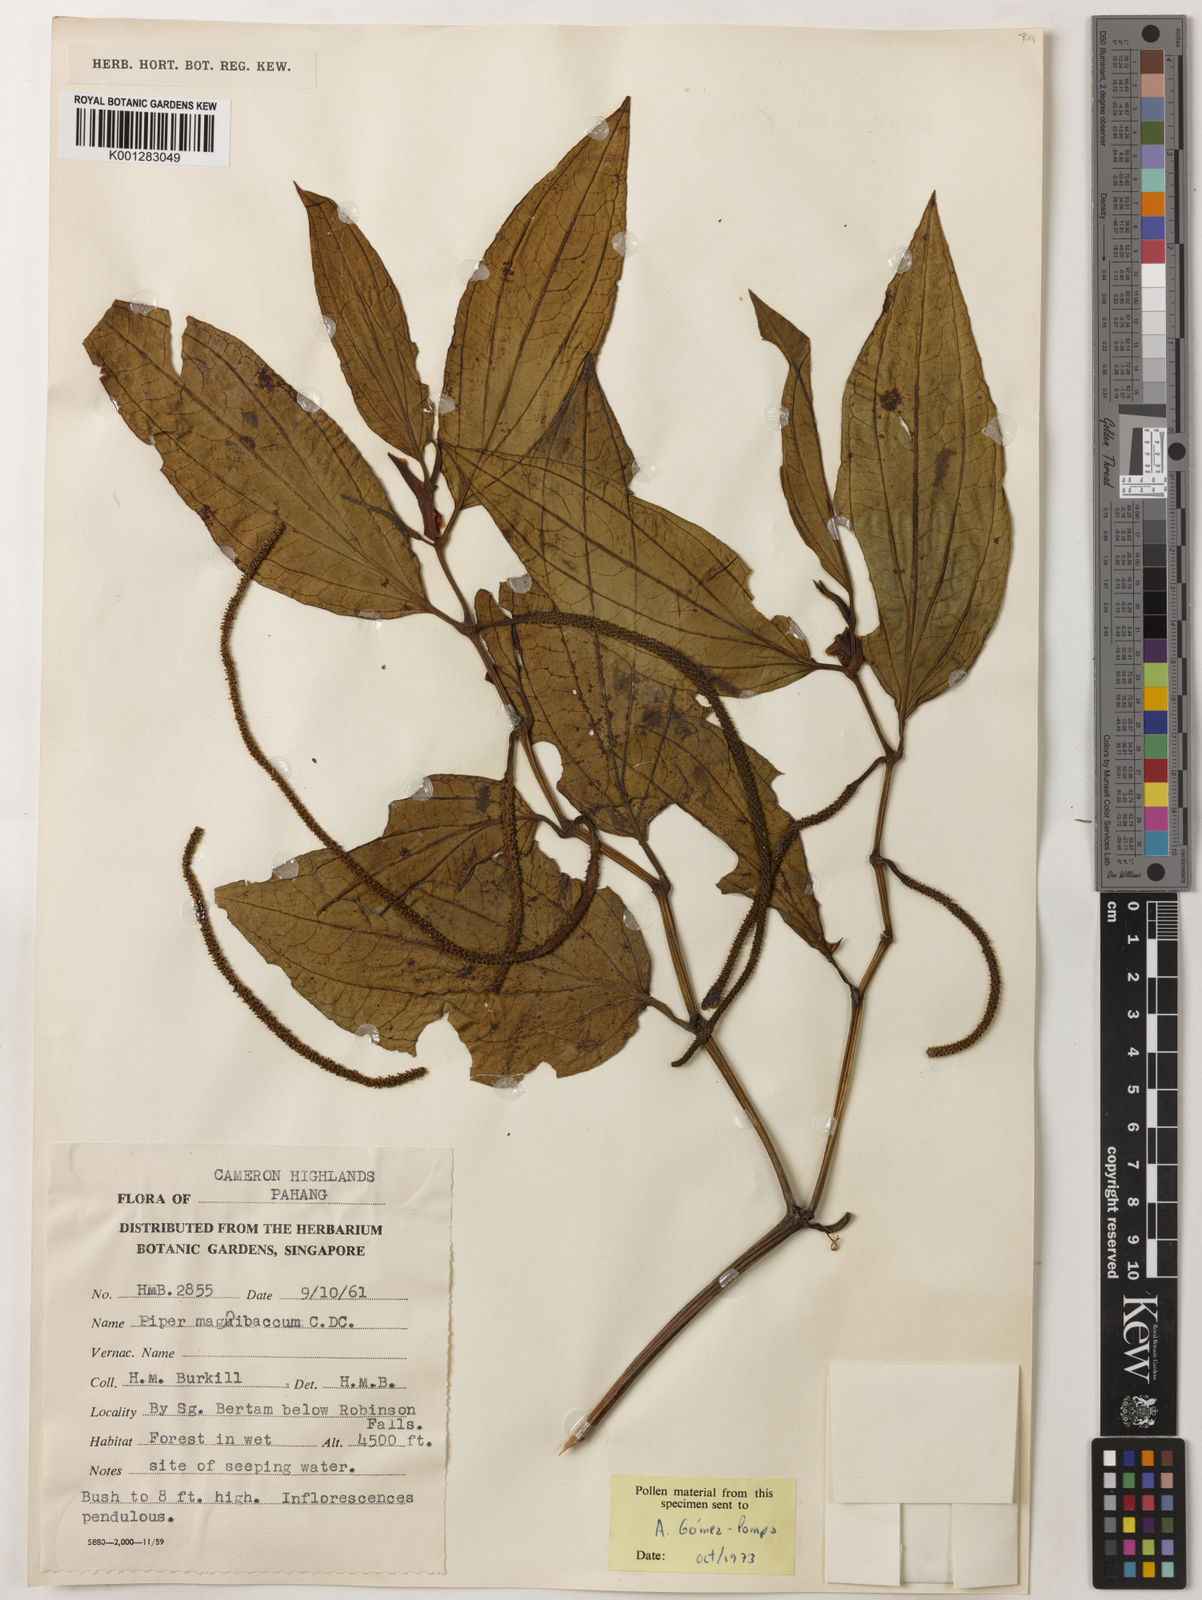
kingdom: Plantae
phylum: Tracheophyta
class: Magnoliopsida
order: Piperales
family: Piperaceae
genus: Piper
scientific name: Piper quinqueangulatum
